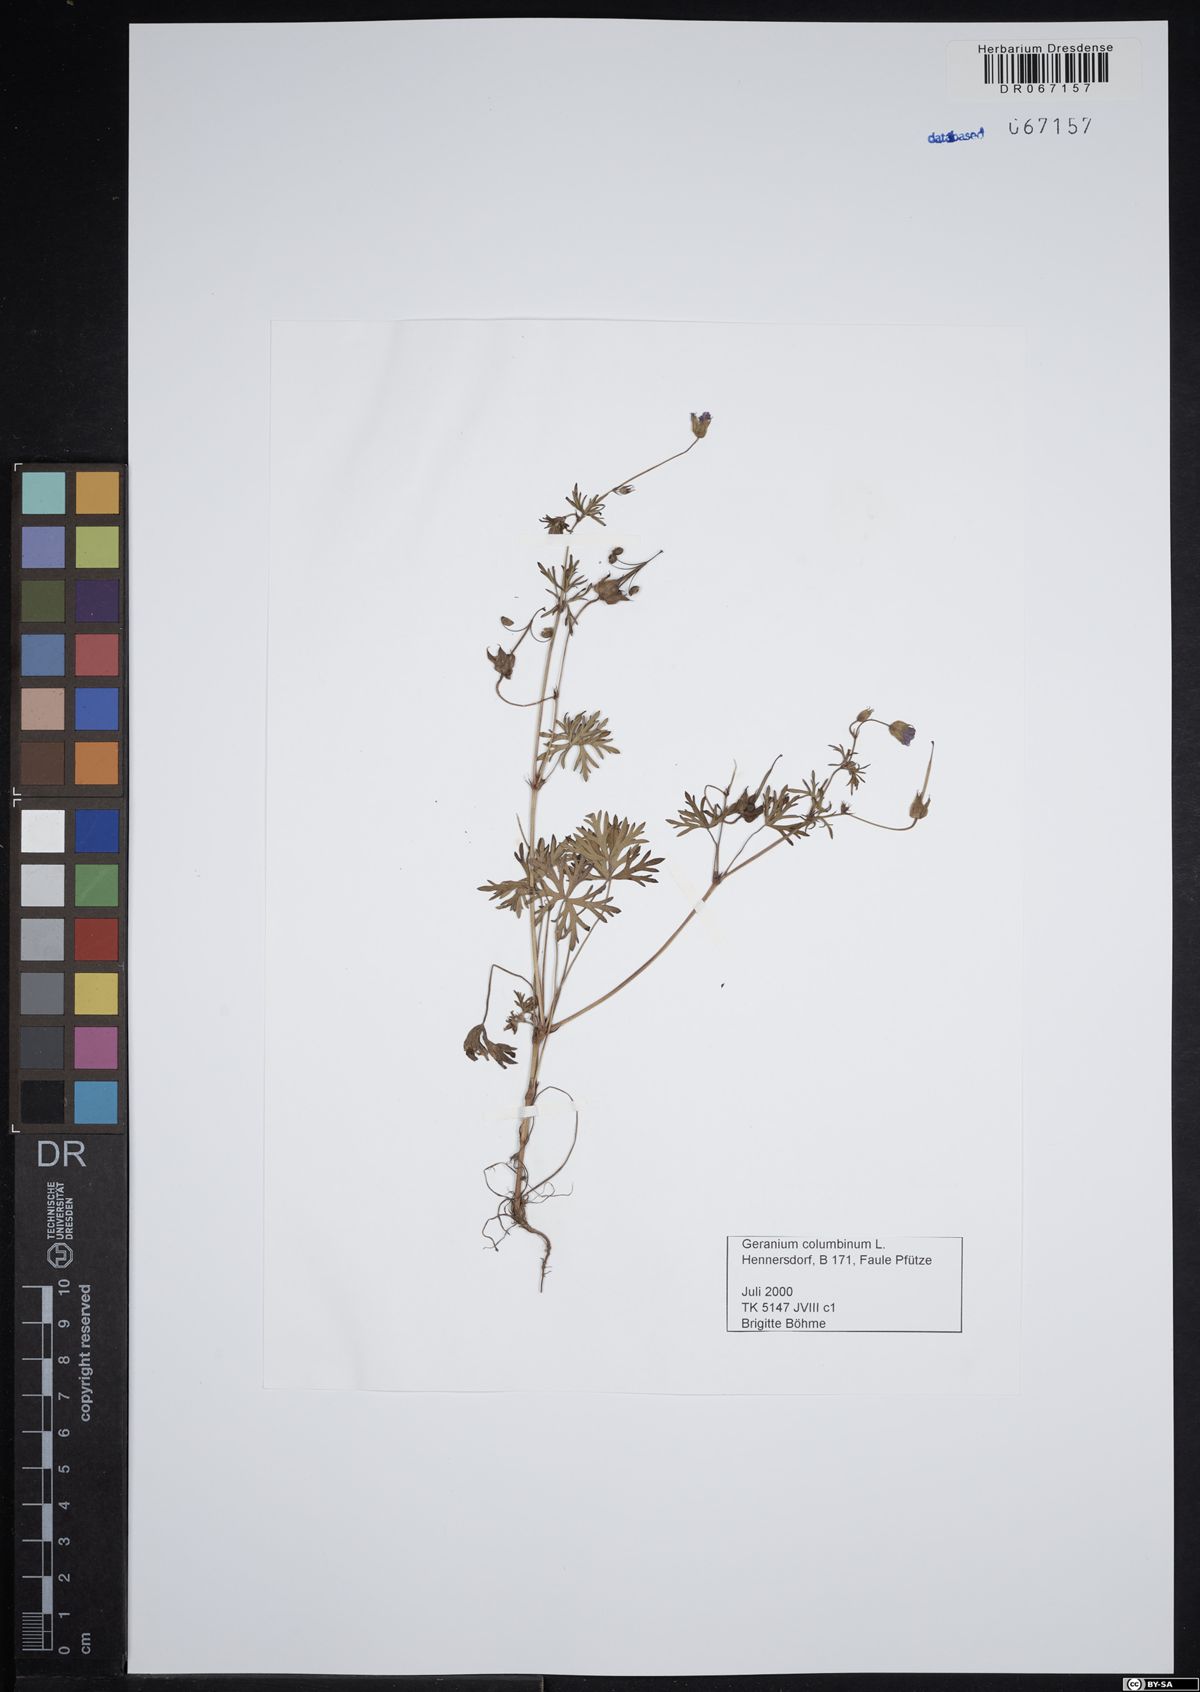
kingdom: Plantae
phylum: Tracheophyta
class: Magnoliopsida
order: Geraniales
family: Geraniaceae
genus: Geranium
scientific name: Geranium columbinum
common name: Long-stalked crane's-bill
